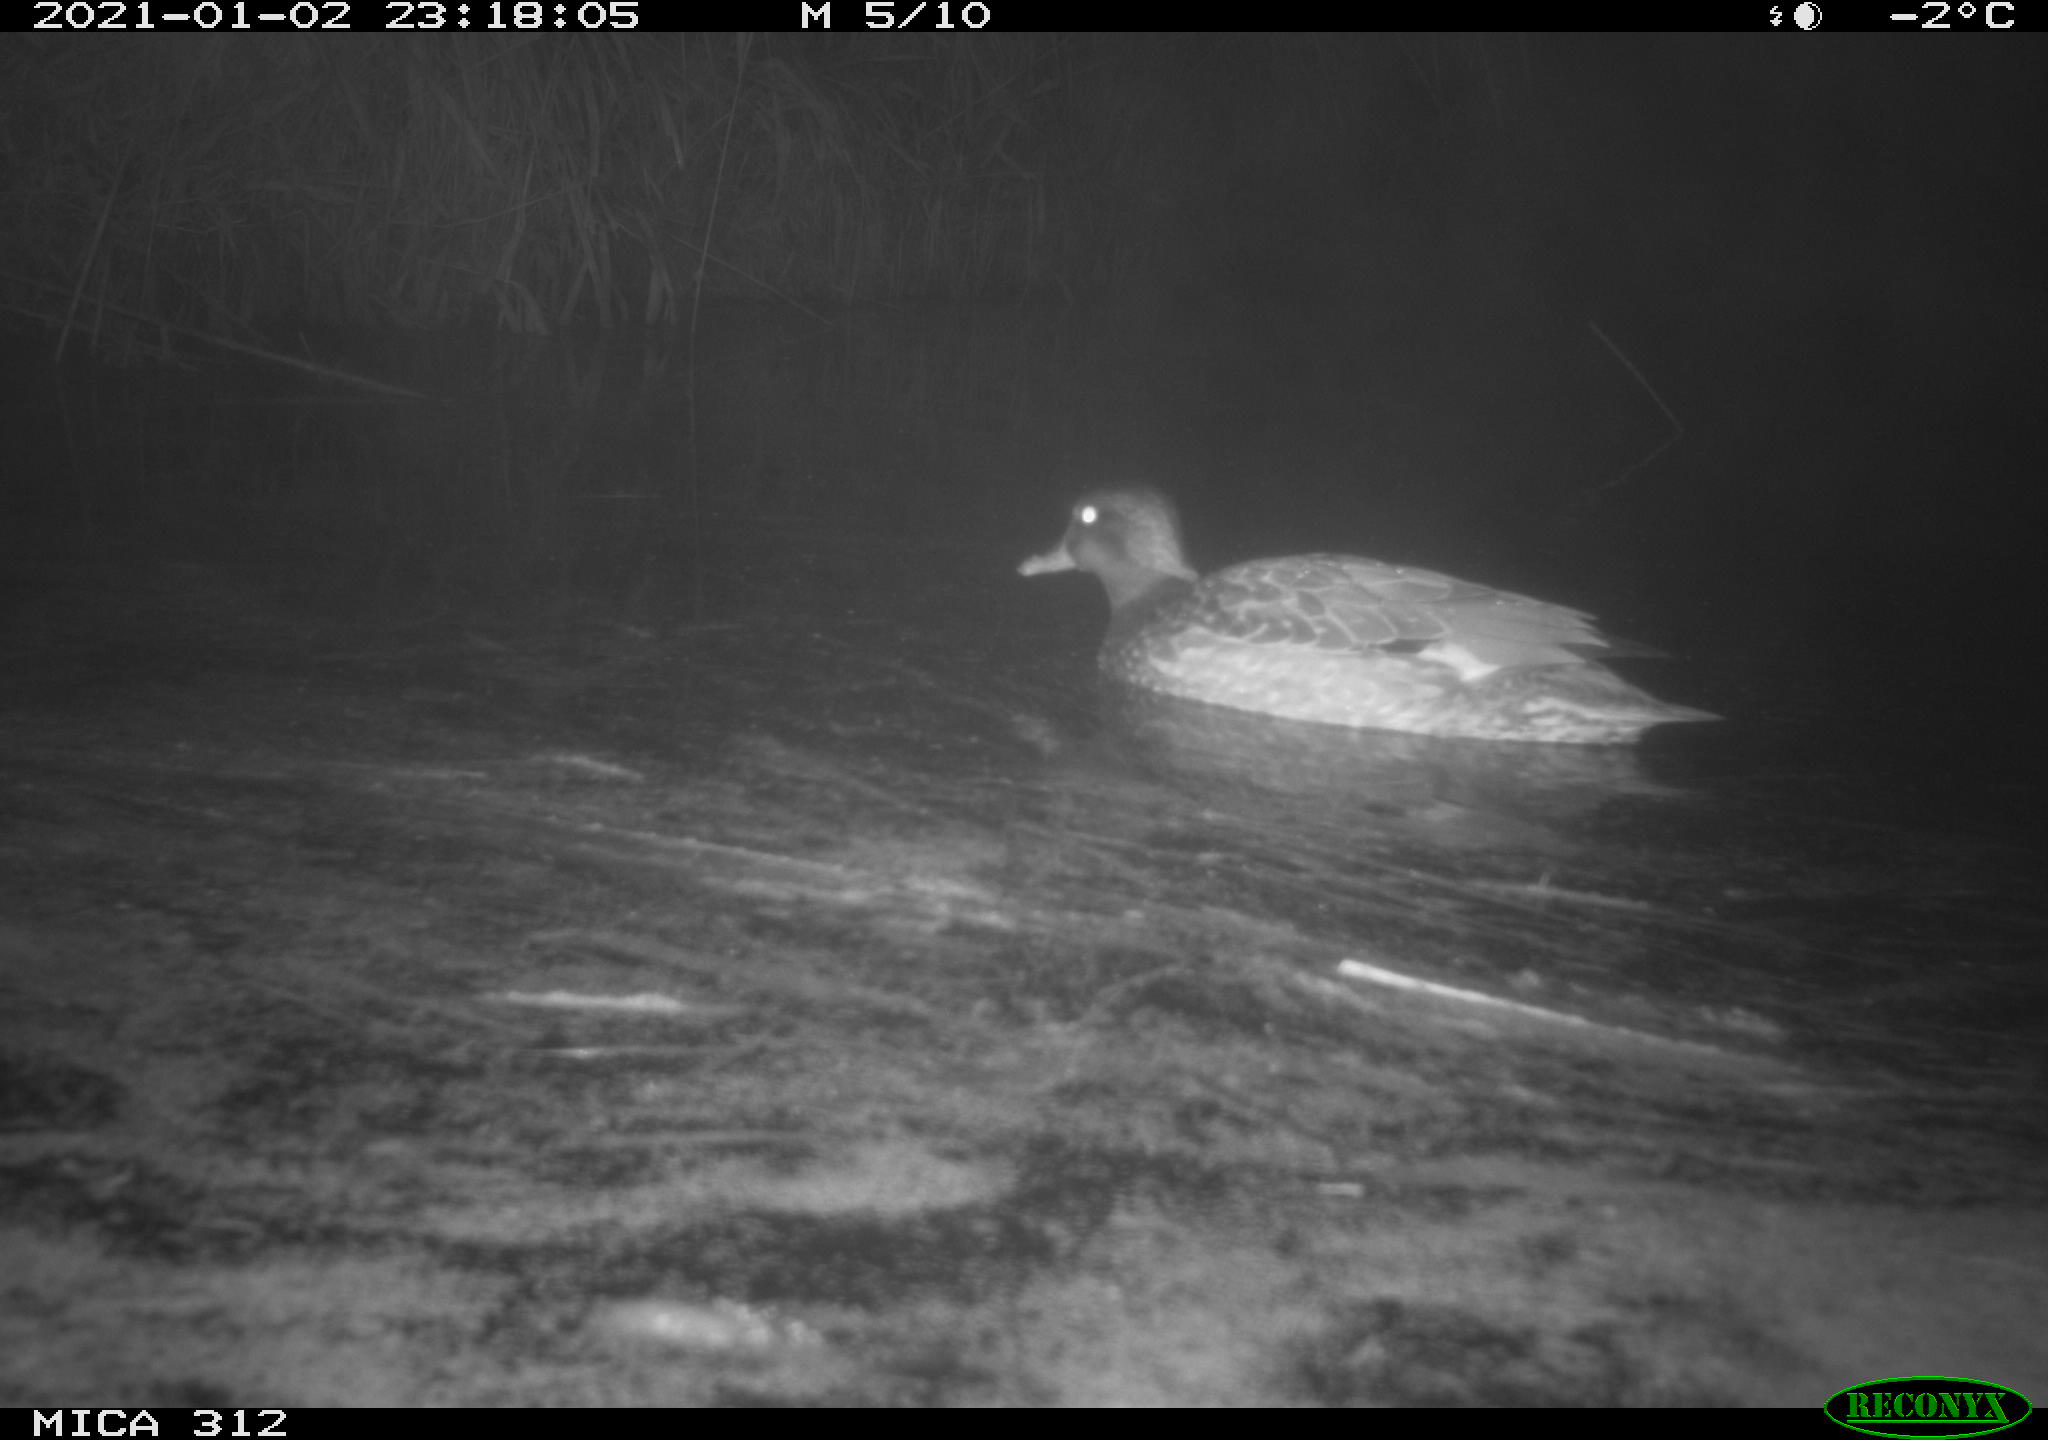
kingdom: Animalia
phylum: Chordata
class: Aves
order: Anseriformes
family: Anatidae
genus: Mareca
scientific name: Mareca strepera
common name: Gadwall
